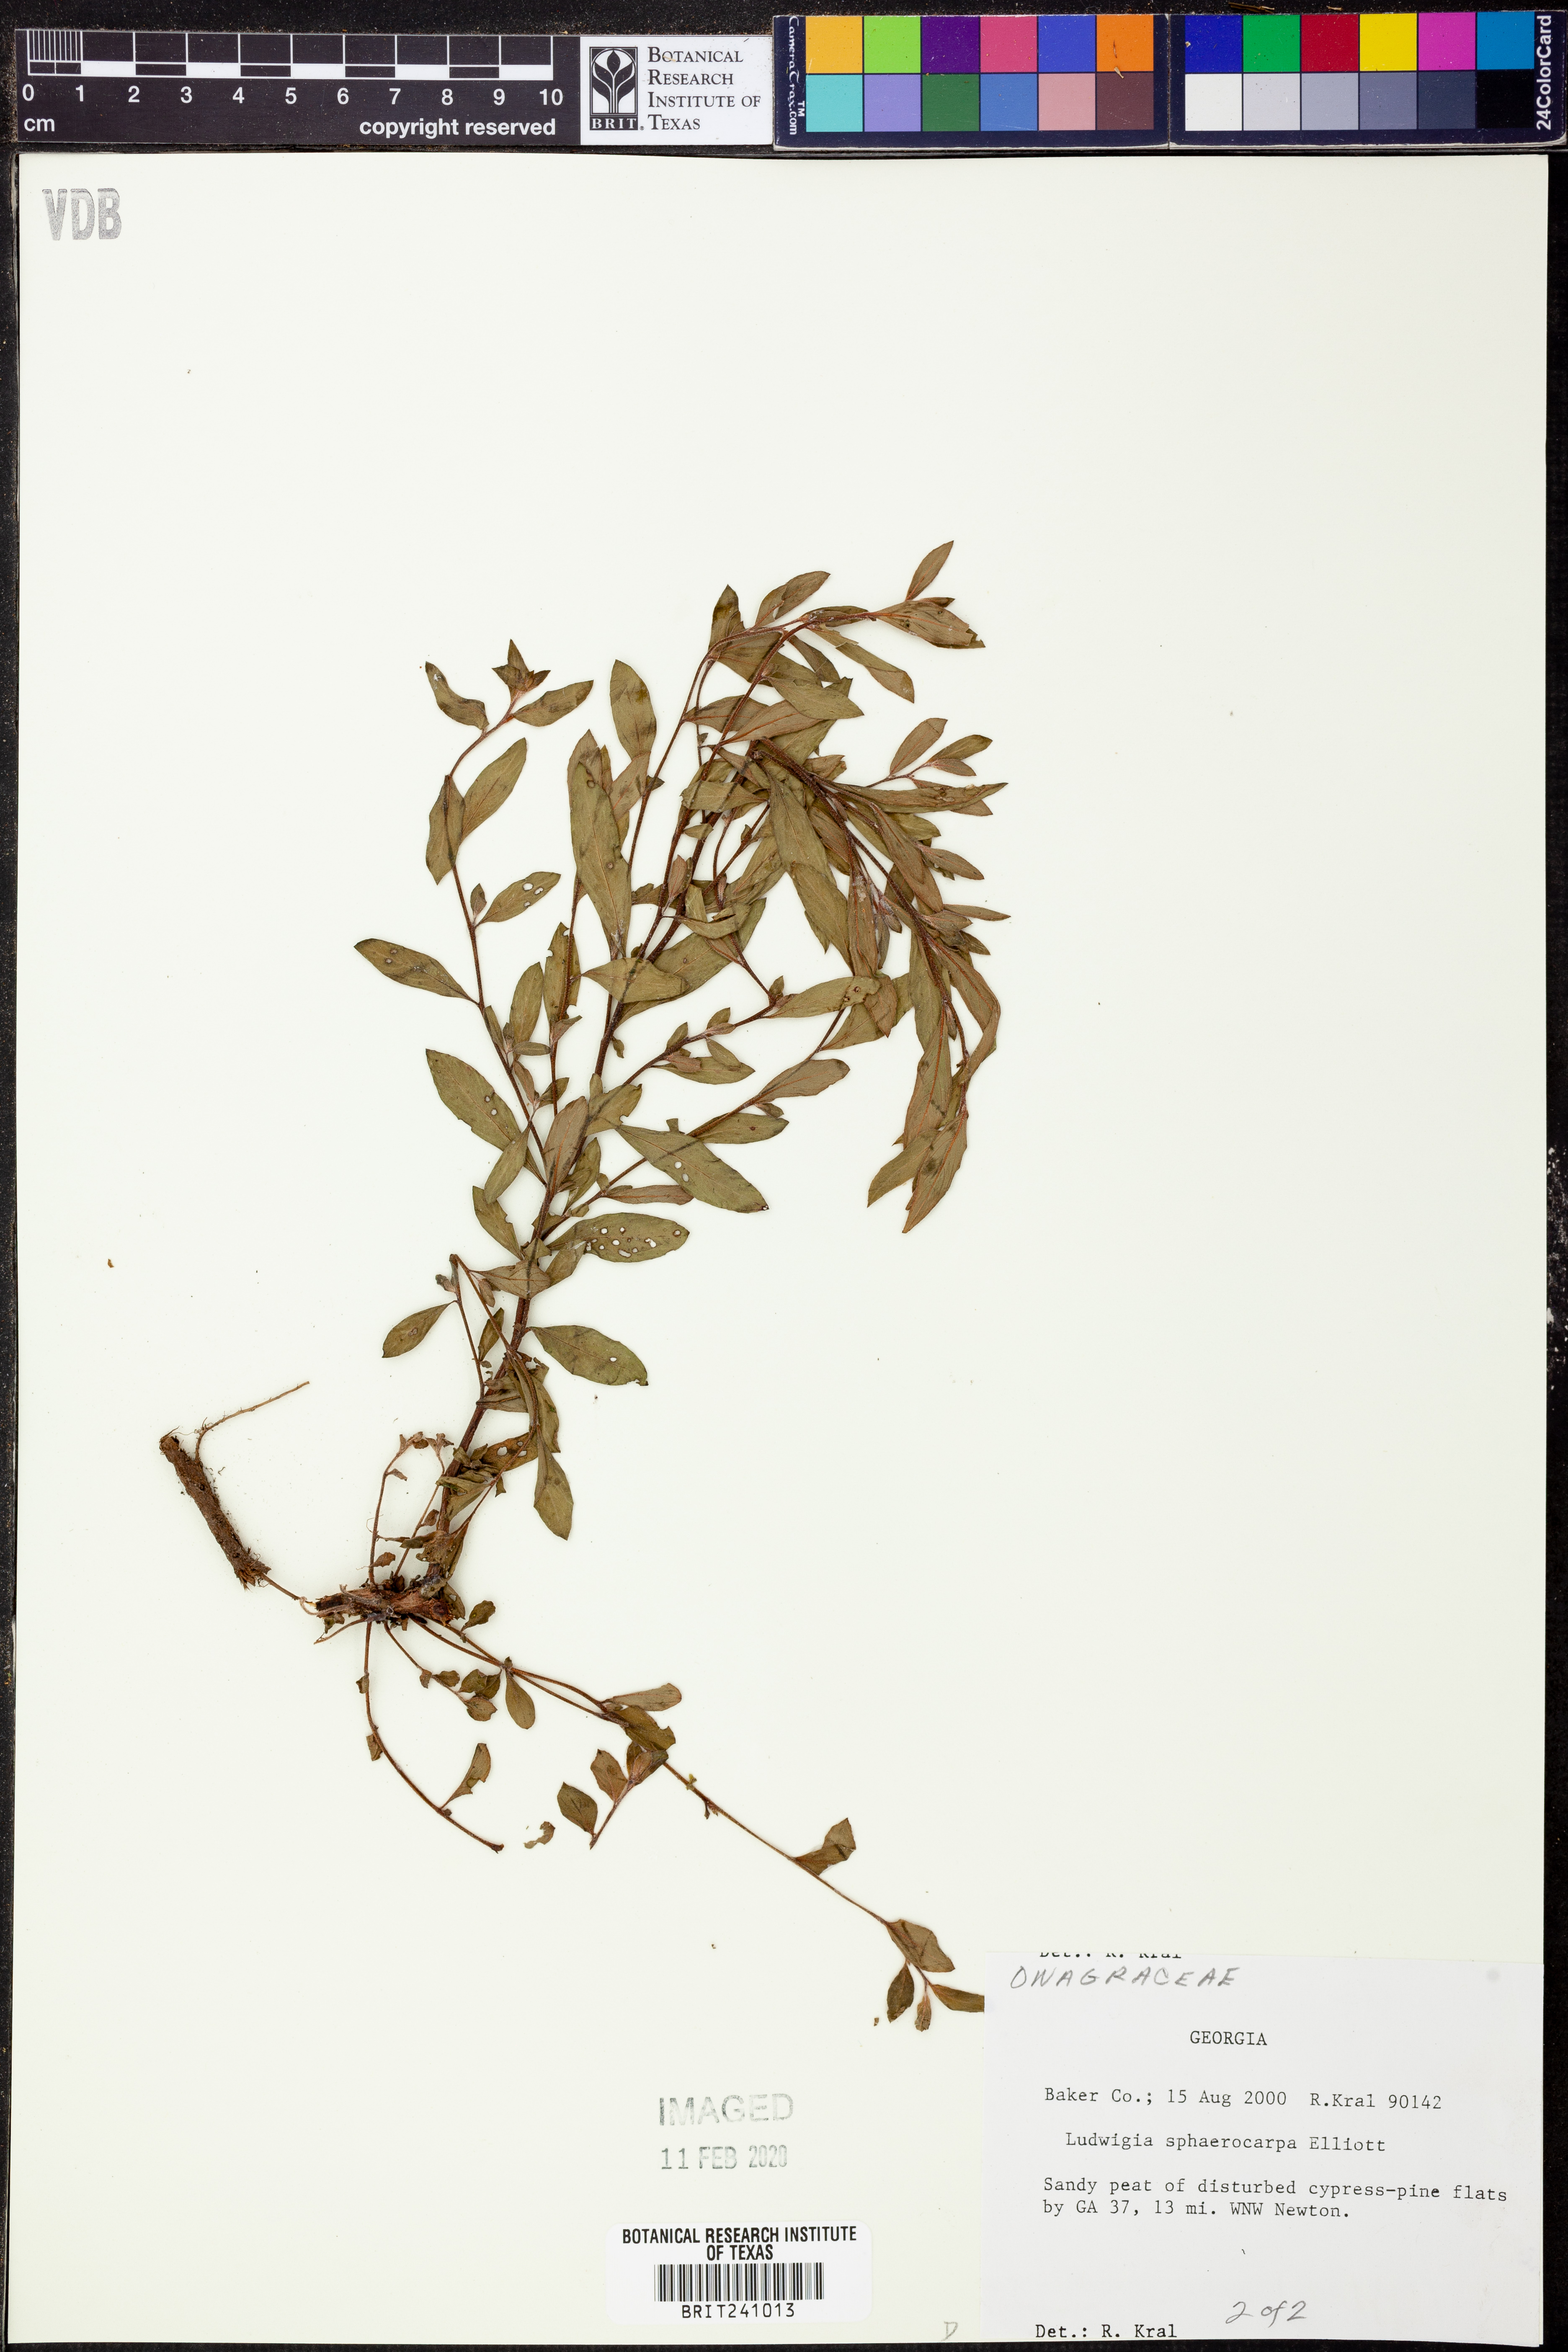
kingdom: Plantae
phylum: Tracheophyta
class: Magnoliopsida
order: Myrtales
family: Onagraceae
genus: Ludwigia
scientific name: Ludwigia sphaerocarpa
